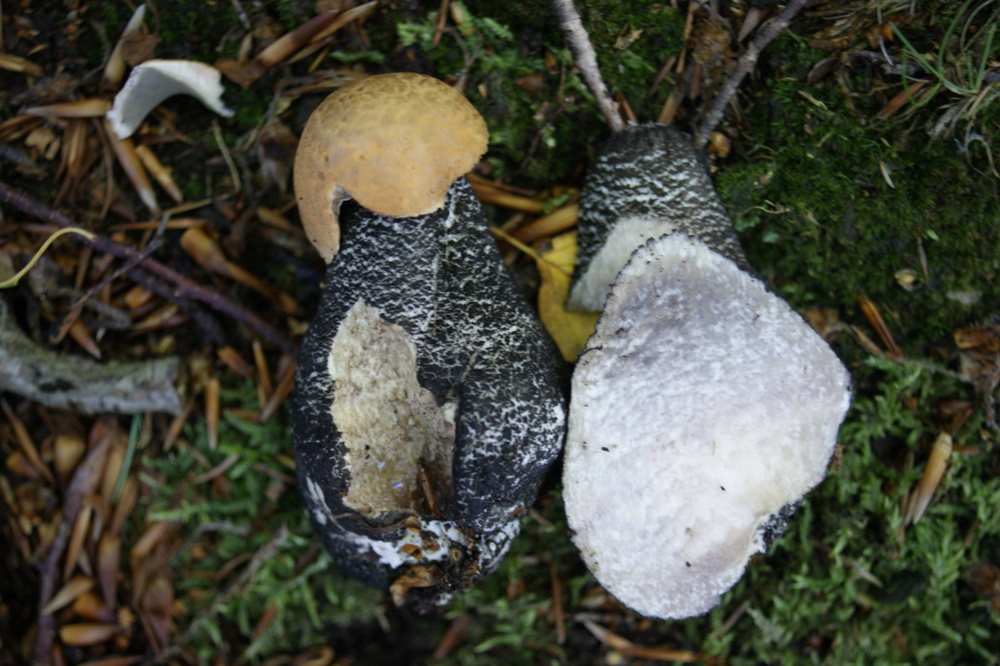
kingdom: Fungi
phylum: Basidiomycota
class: Agaricomycetes
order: Boletales
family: Boletaceae
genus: Leccinum
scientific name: Leccinum versipelle
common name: orange skælrørhat
